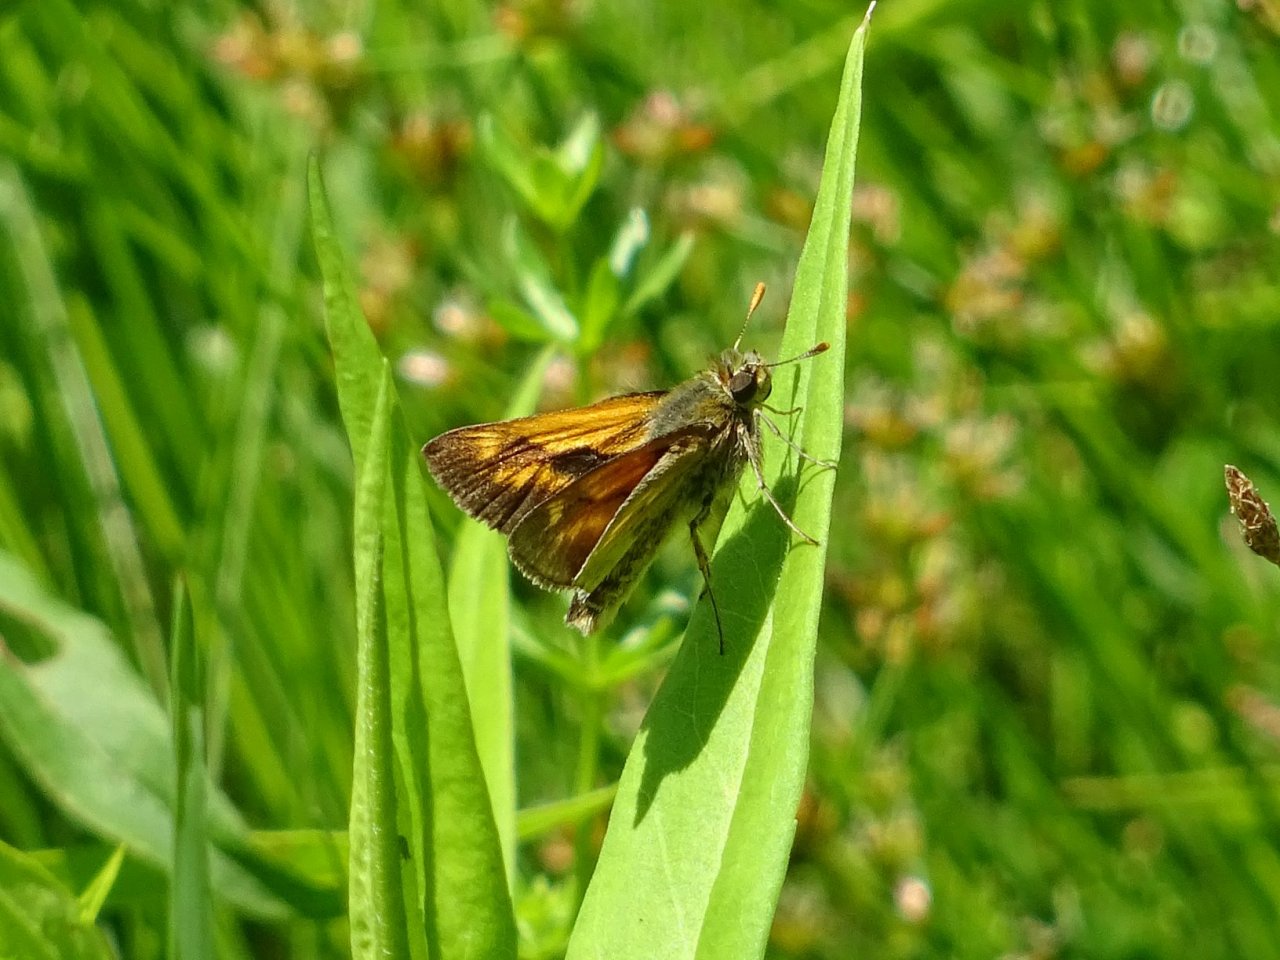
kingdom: Animalia
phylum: Arthropoda
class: Insecta
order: Lepidoptera
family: Hesperiidae
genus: Polites
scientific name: Polites
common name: Long Dash Skipper
